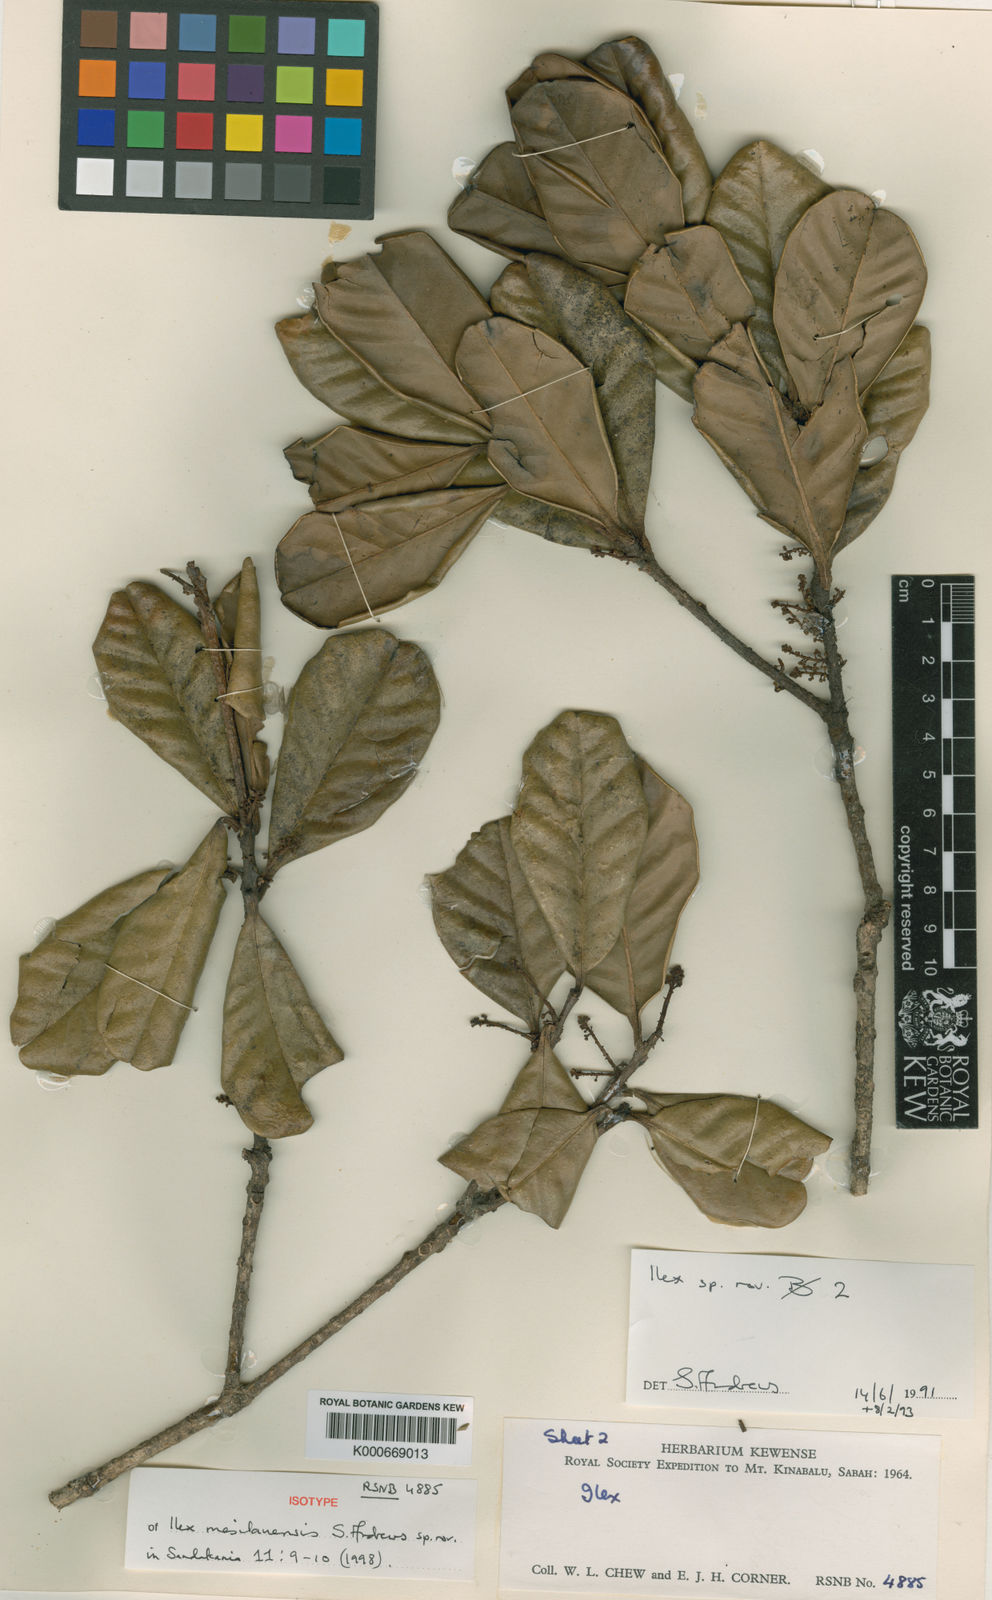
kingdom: Plantae
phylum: Tracheophyta
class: Magnoliopsida
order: Aquifoliales
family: Aquifoliaceae
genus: Ilex
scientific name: Ilex mesilauensis
